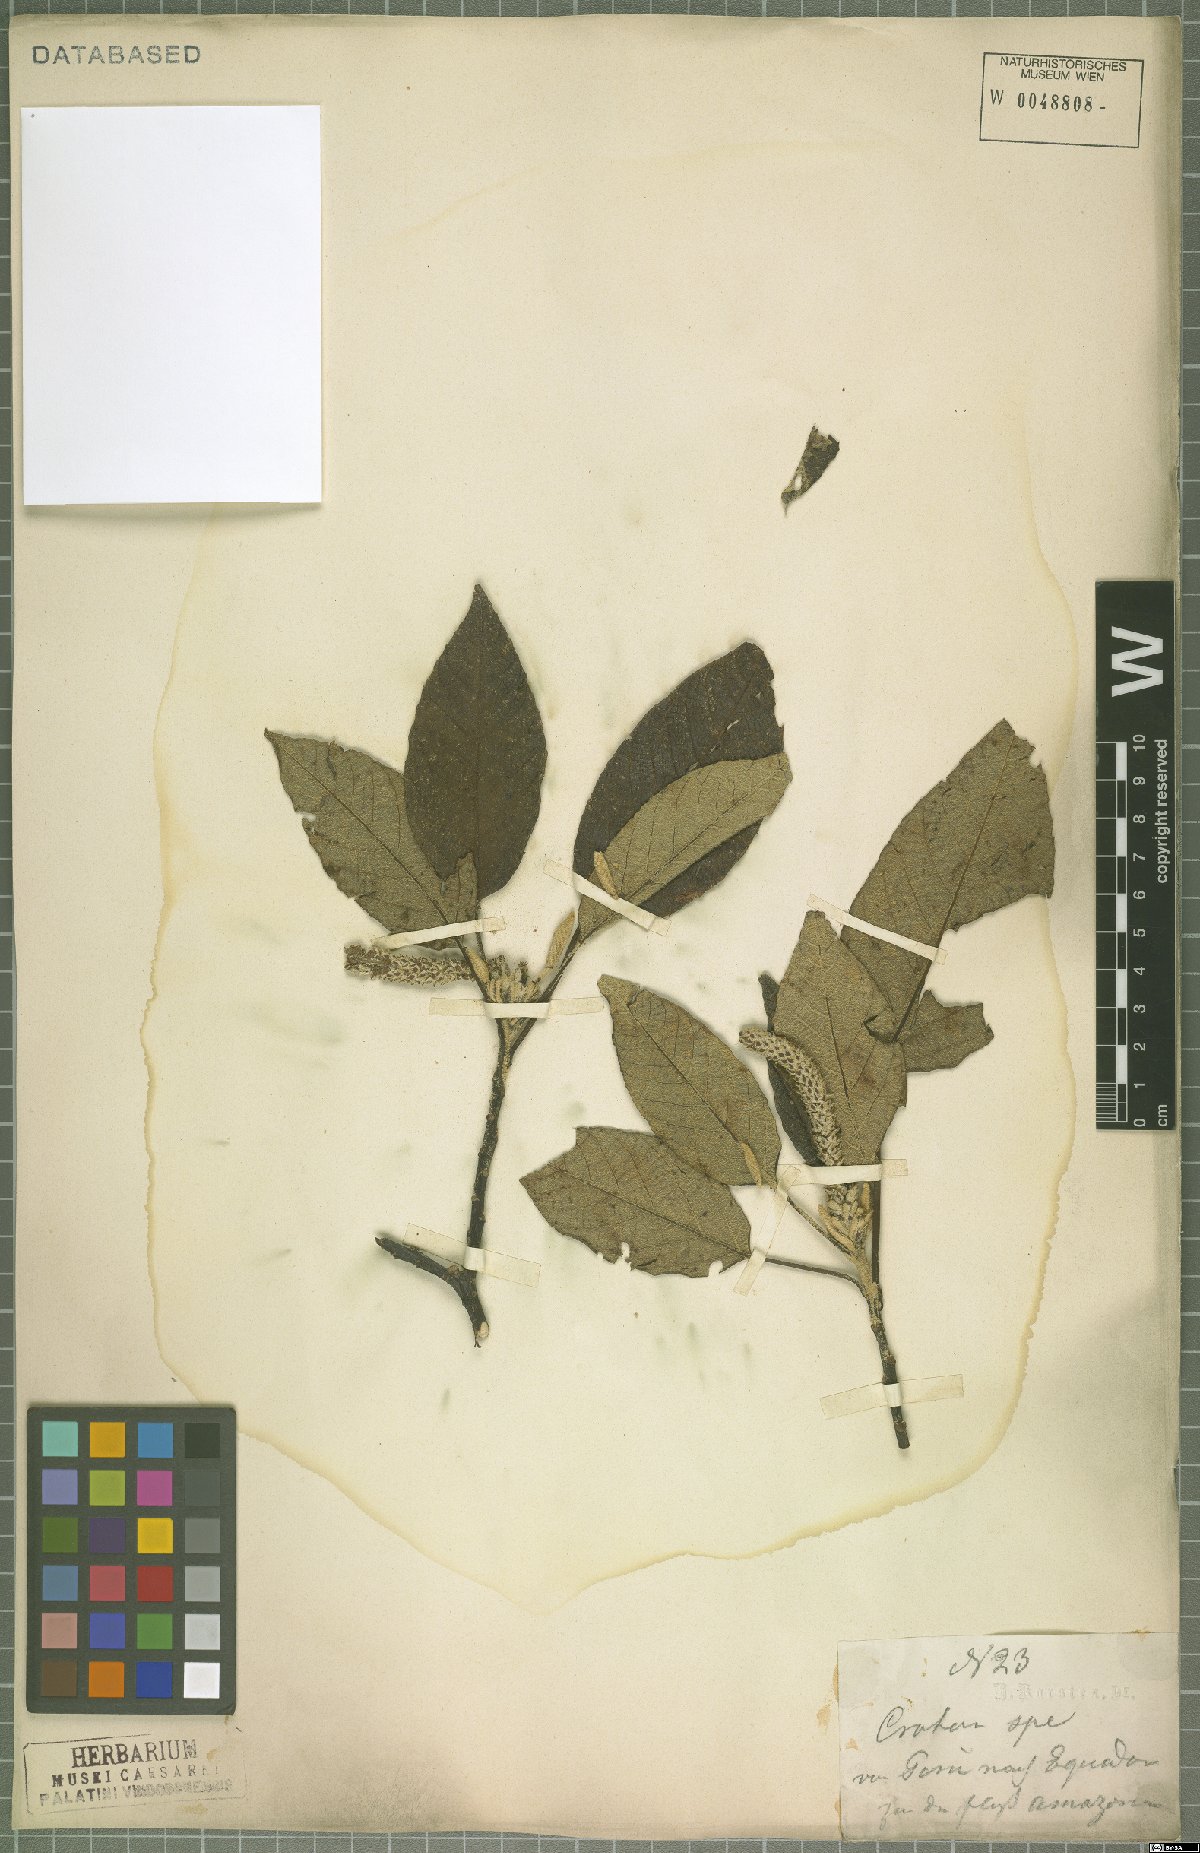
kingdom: Plantae
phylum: Tracheophyta
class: Magnoliopsida
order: Malpighiales
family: Euphorbiaceae
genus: Croton
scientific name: Croton amentiformis
